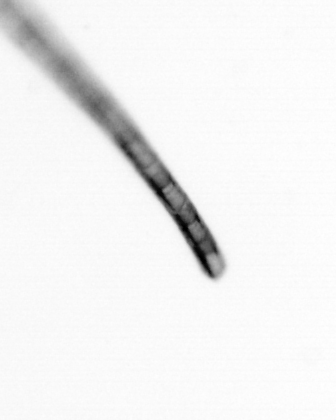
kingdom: Chromista
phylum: Ochrophyta
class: Bacillariophyceae
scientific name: Bacillariophyceae
